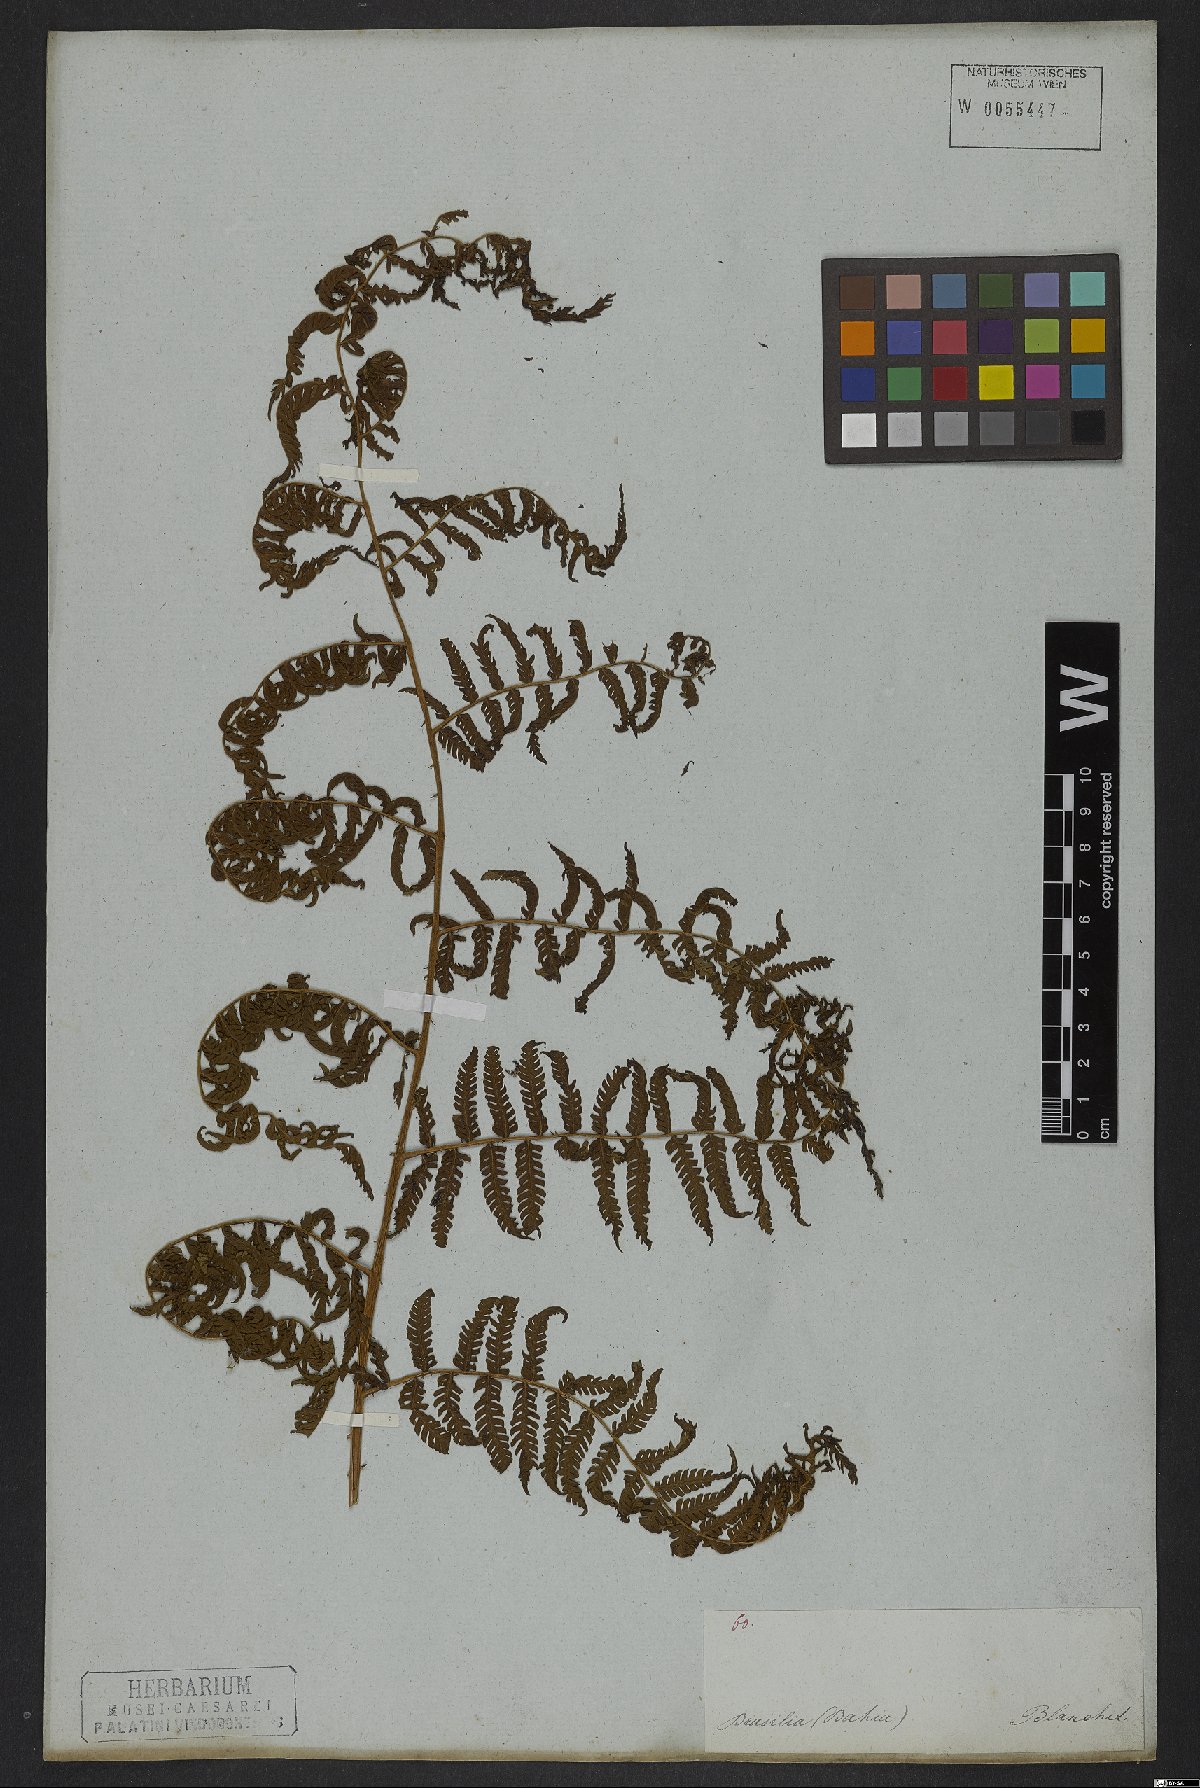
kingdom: Plantae
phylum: Tracheophyta
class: Polypodiopsida
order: Cyatheales
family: Cyatheaceae
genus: Cyathea
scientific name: Cyathea microdonta
